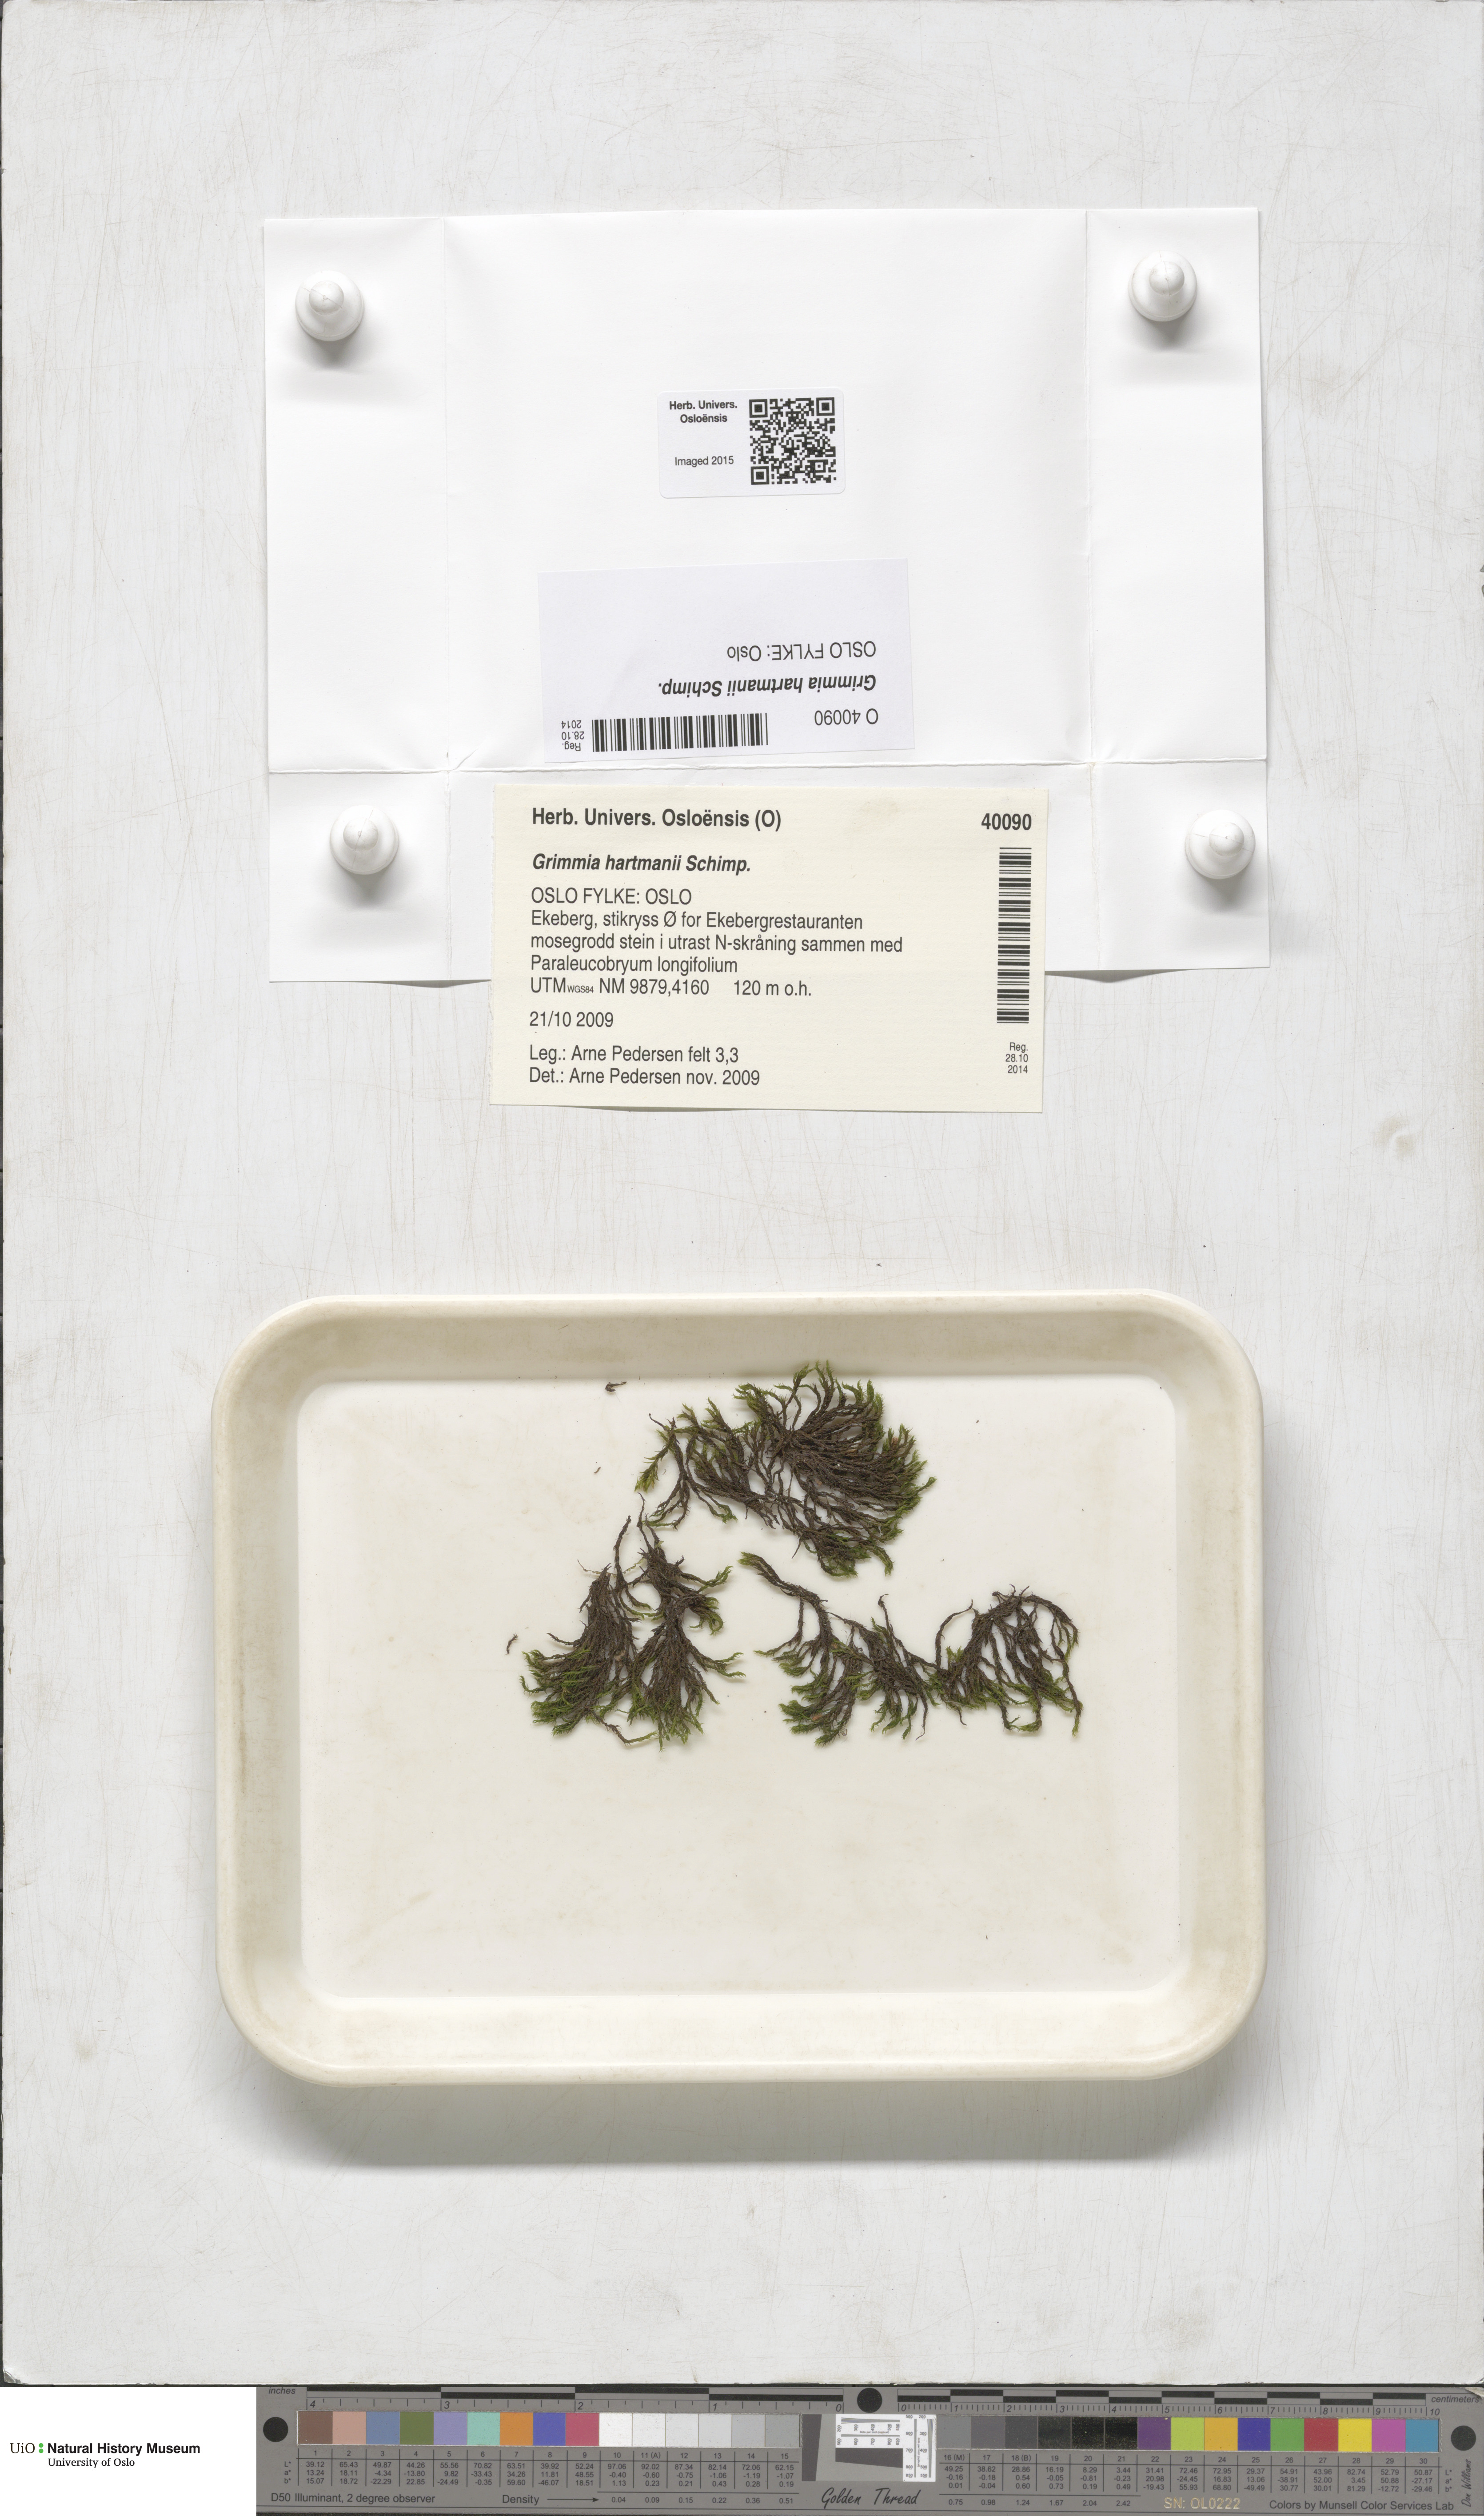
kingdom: Plantae
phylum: Bryophyta
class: Bryopsida
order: Grimmiales
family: Grimmiaceae
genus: Grimmia
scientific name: Grimmia hartmanii
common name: Hartman's grimmia
